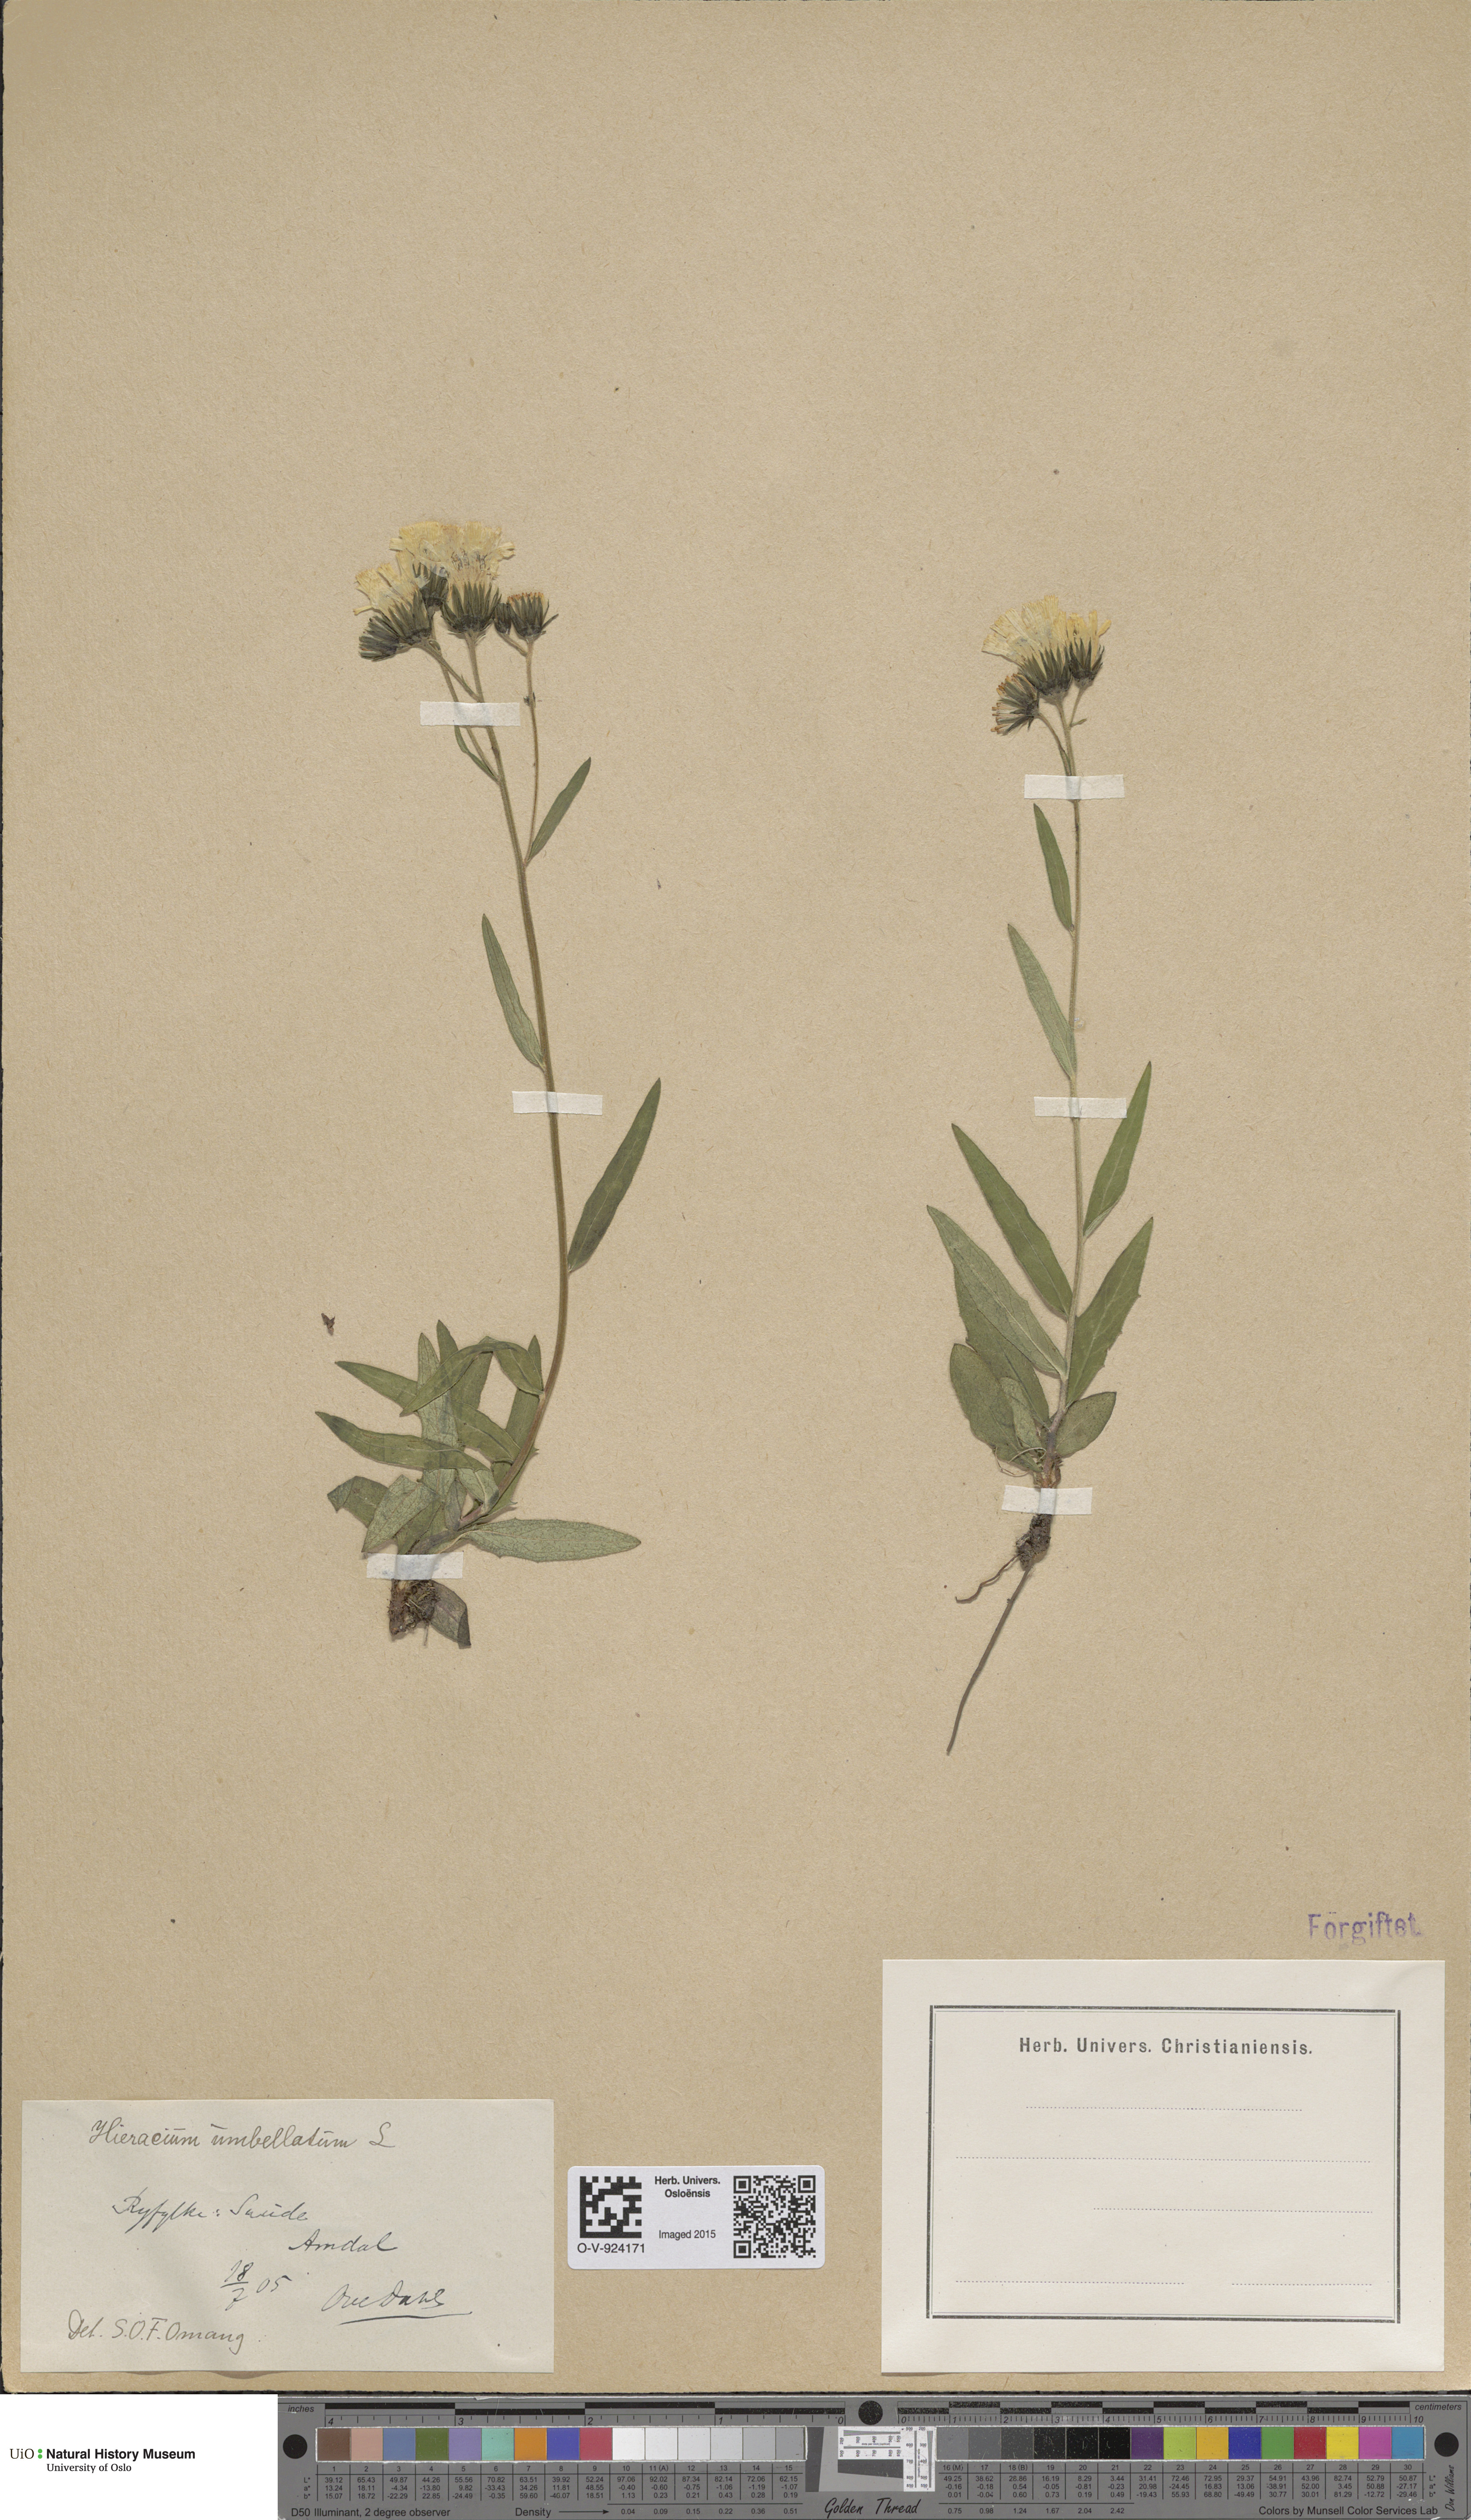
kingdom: Plantae
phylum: Tracheophyta
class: Magnoliopsida
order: Asterales
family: Asteraceae
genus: Hieracium
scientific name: Hieracium umbellatum
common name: Northern hawkweed
